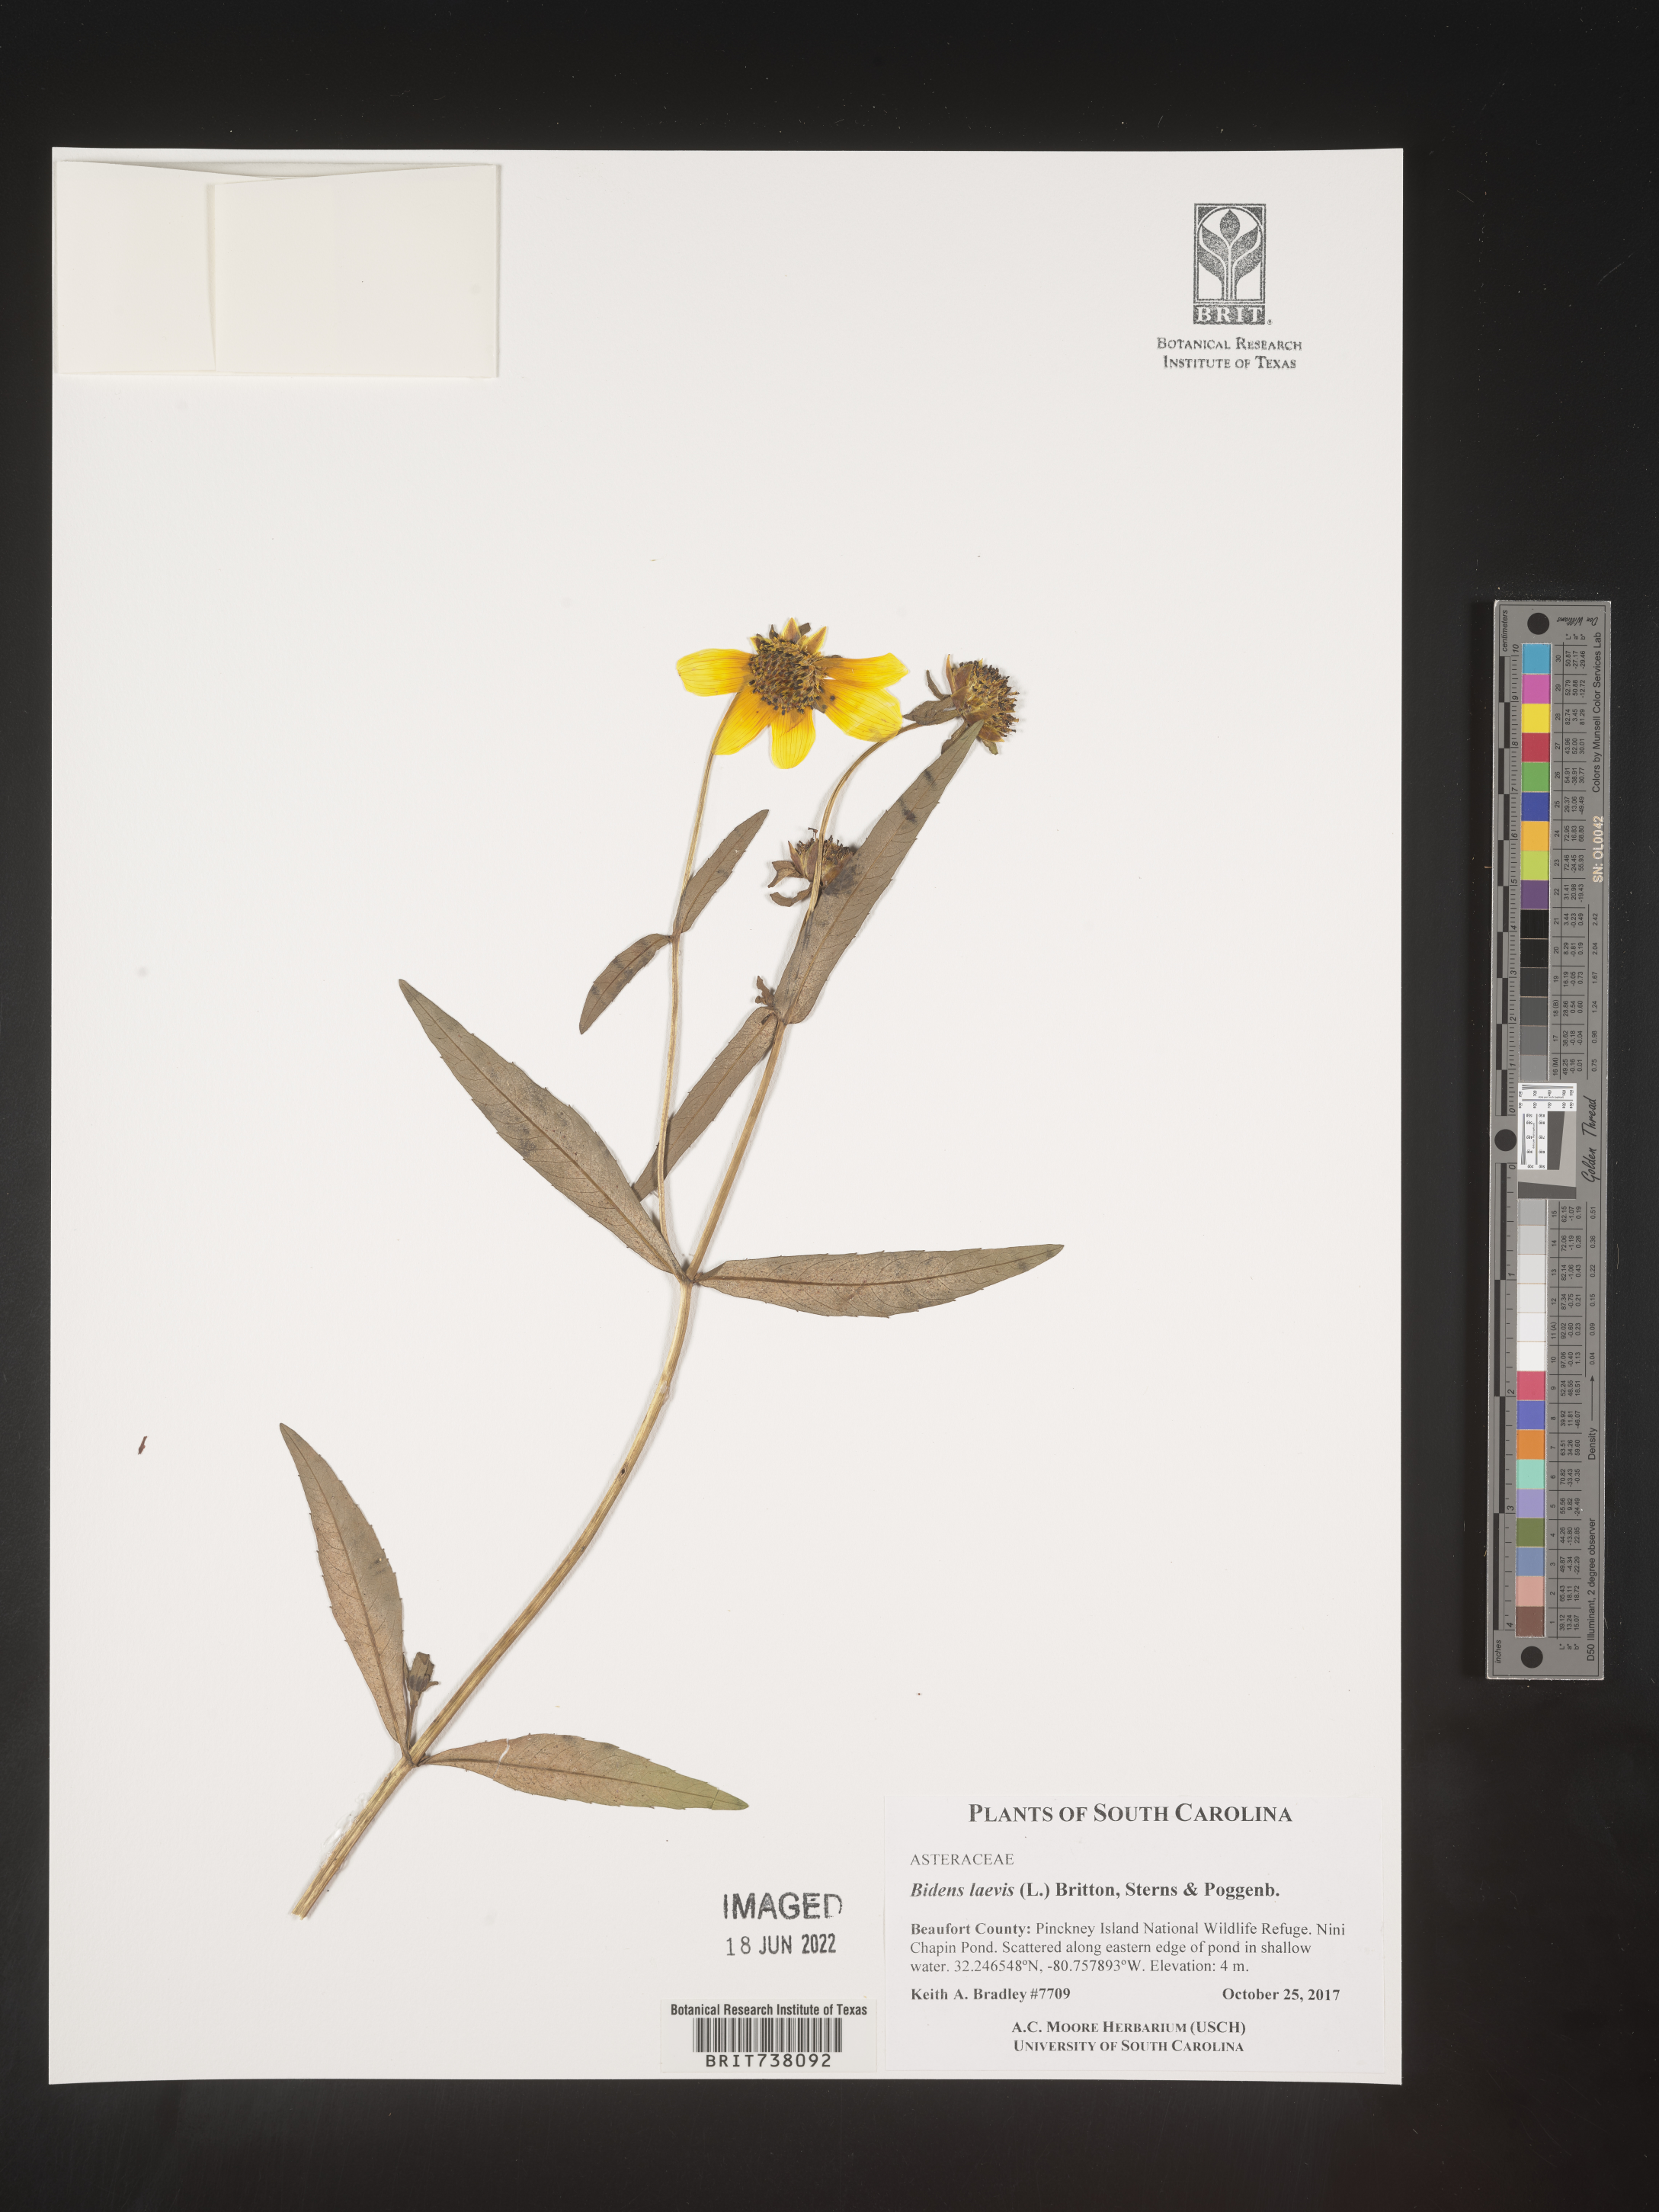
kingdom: Plantae
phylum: Tracheophyta
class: Magnoliopsida
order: Asterales
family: Asteraceae
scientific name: Asteraceae
